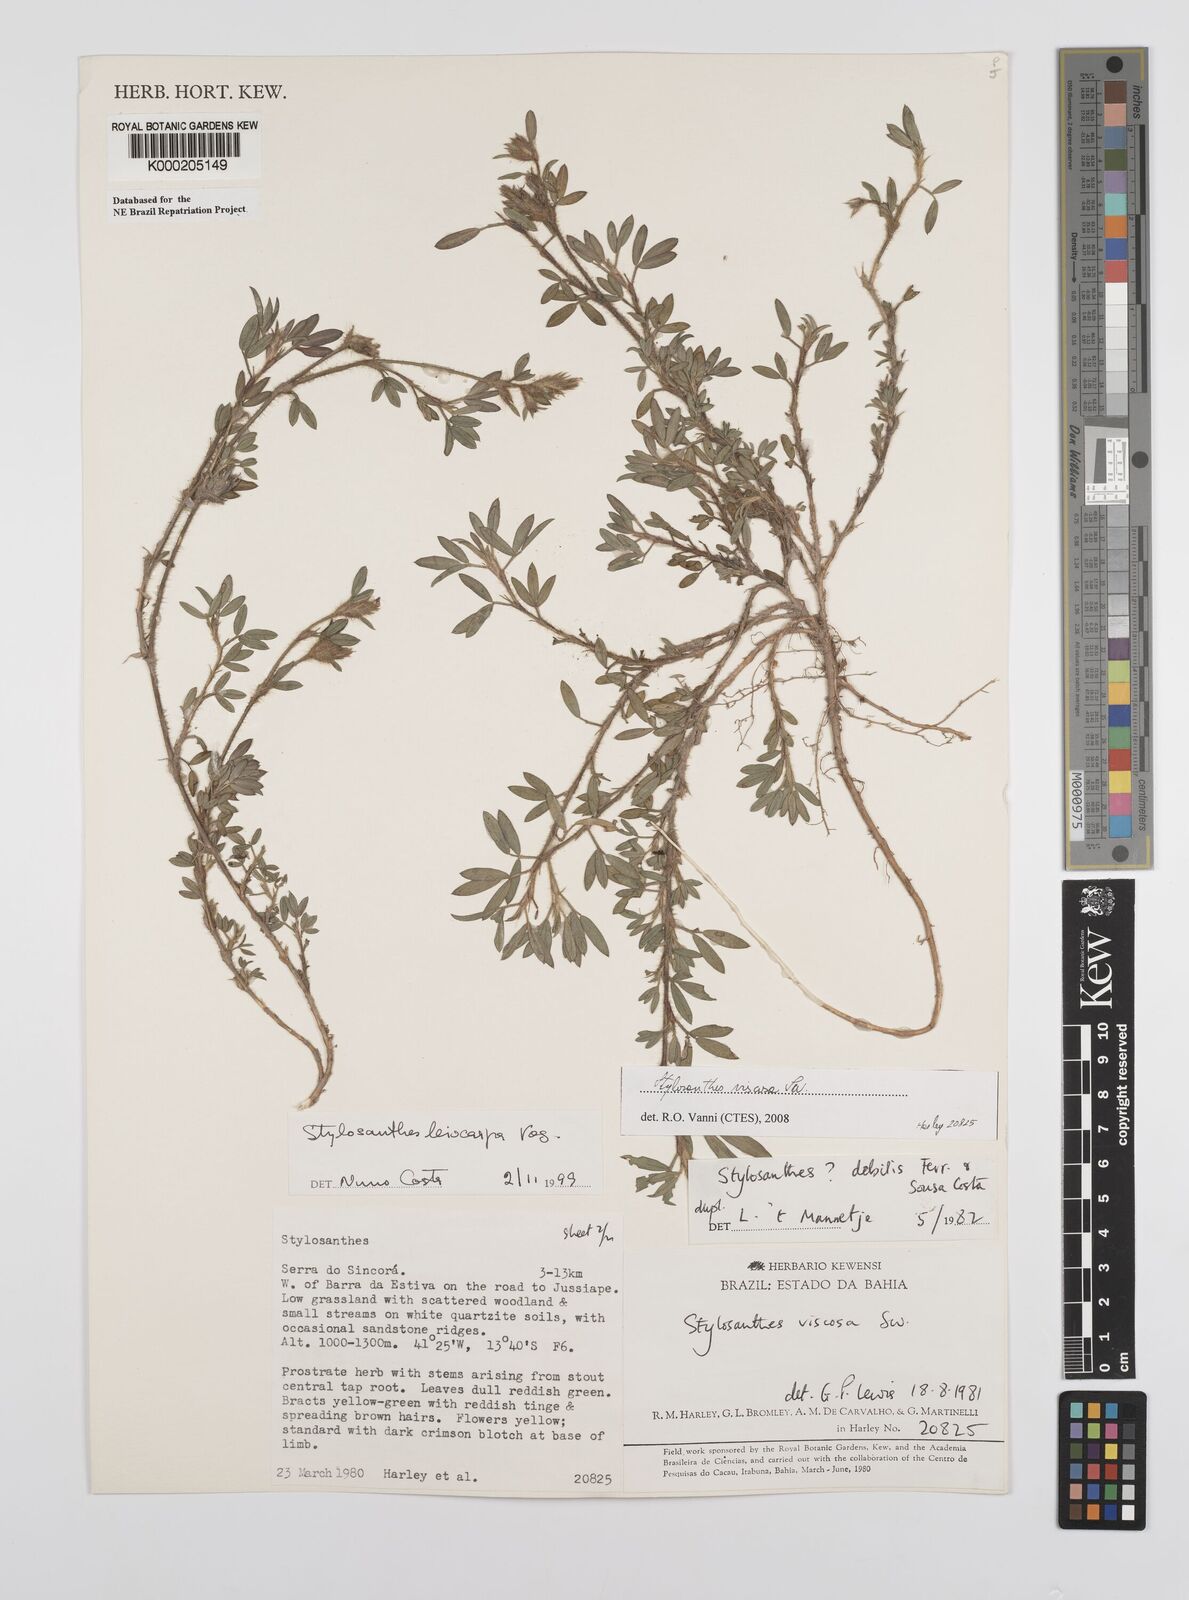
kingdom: Plantae
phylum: Tracheophyta
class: Magnoliopsida
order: Fabales
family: Fabaceae
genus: Stylosanthes
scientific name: Stylosanthes leiocarpa
